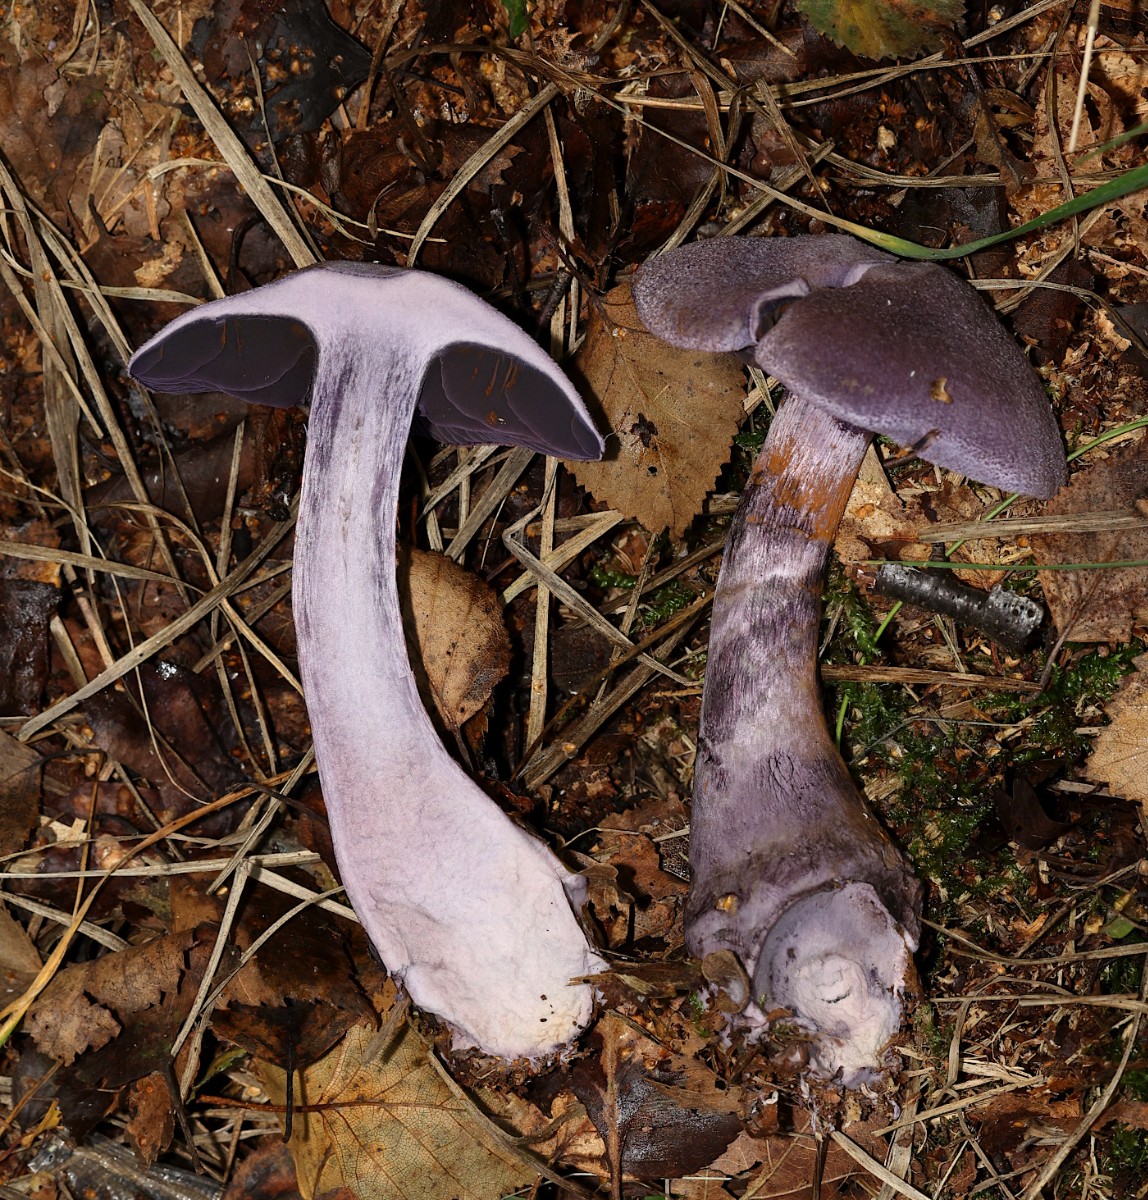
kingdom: Fungi
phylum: Basidiomycota
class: Agaricomycetes
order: Agaricales
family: Cortinariaceae
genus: Cortinarius
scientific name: Cortinarius violaceus
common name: mørkviolet slørhat
